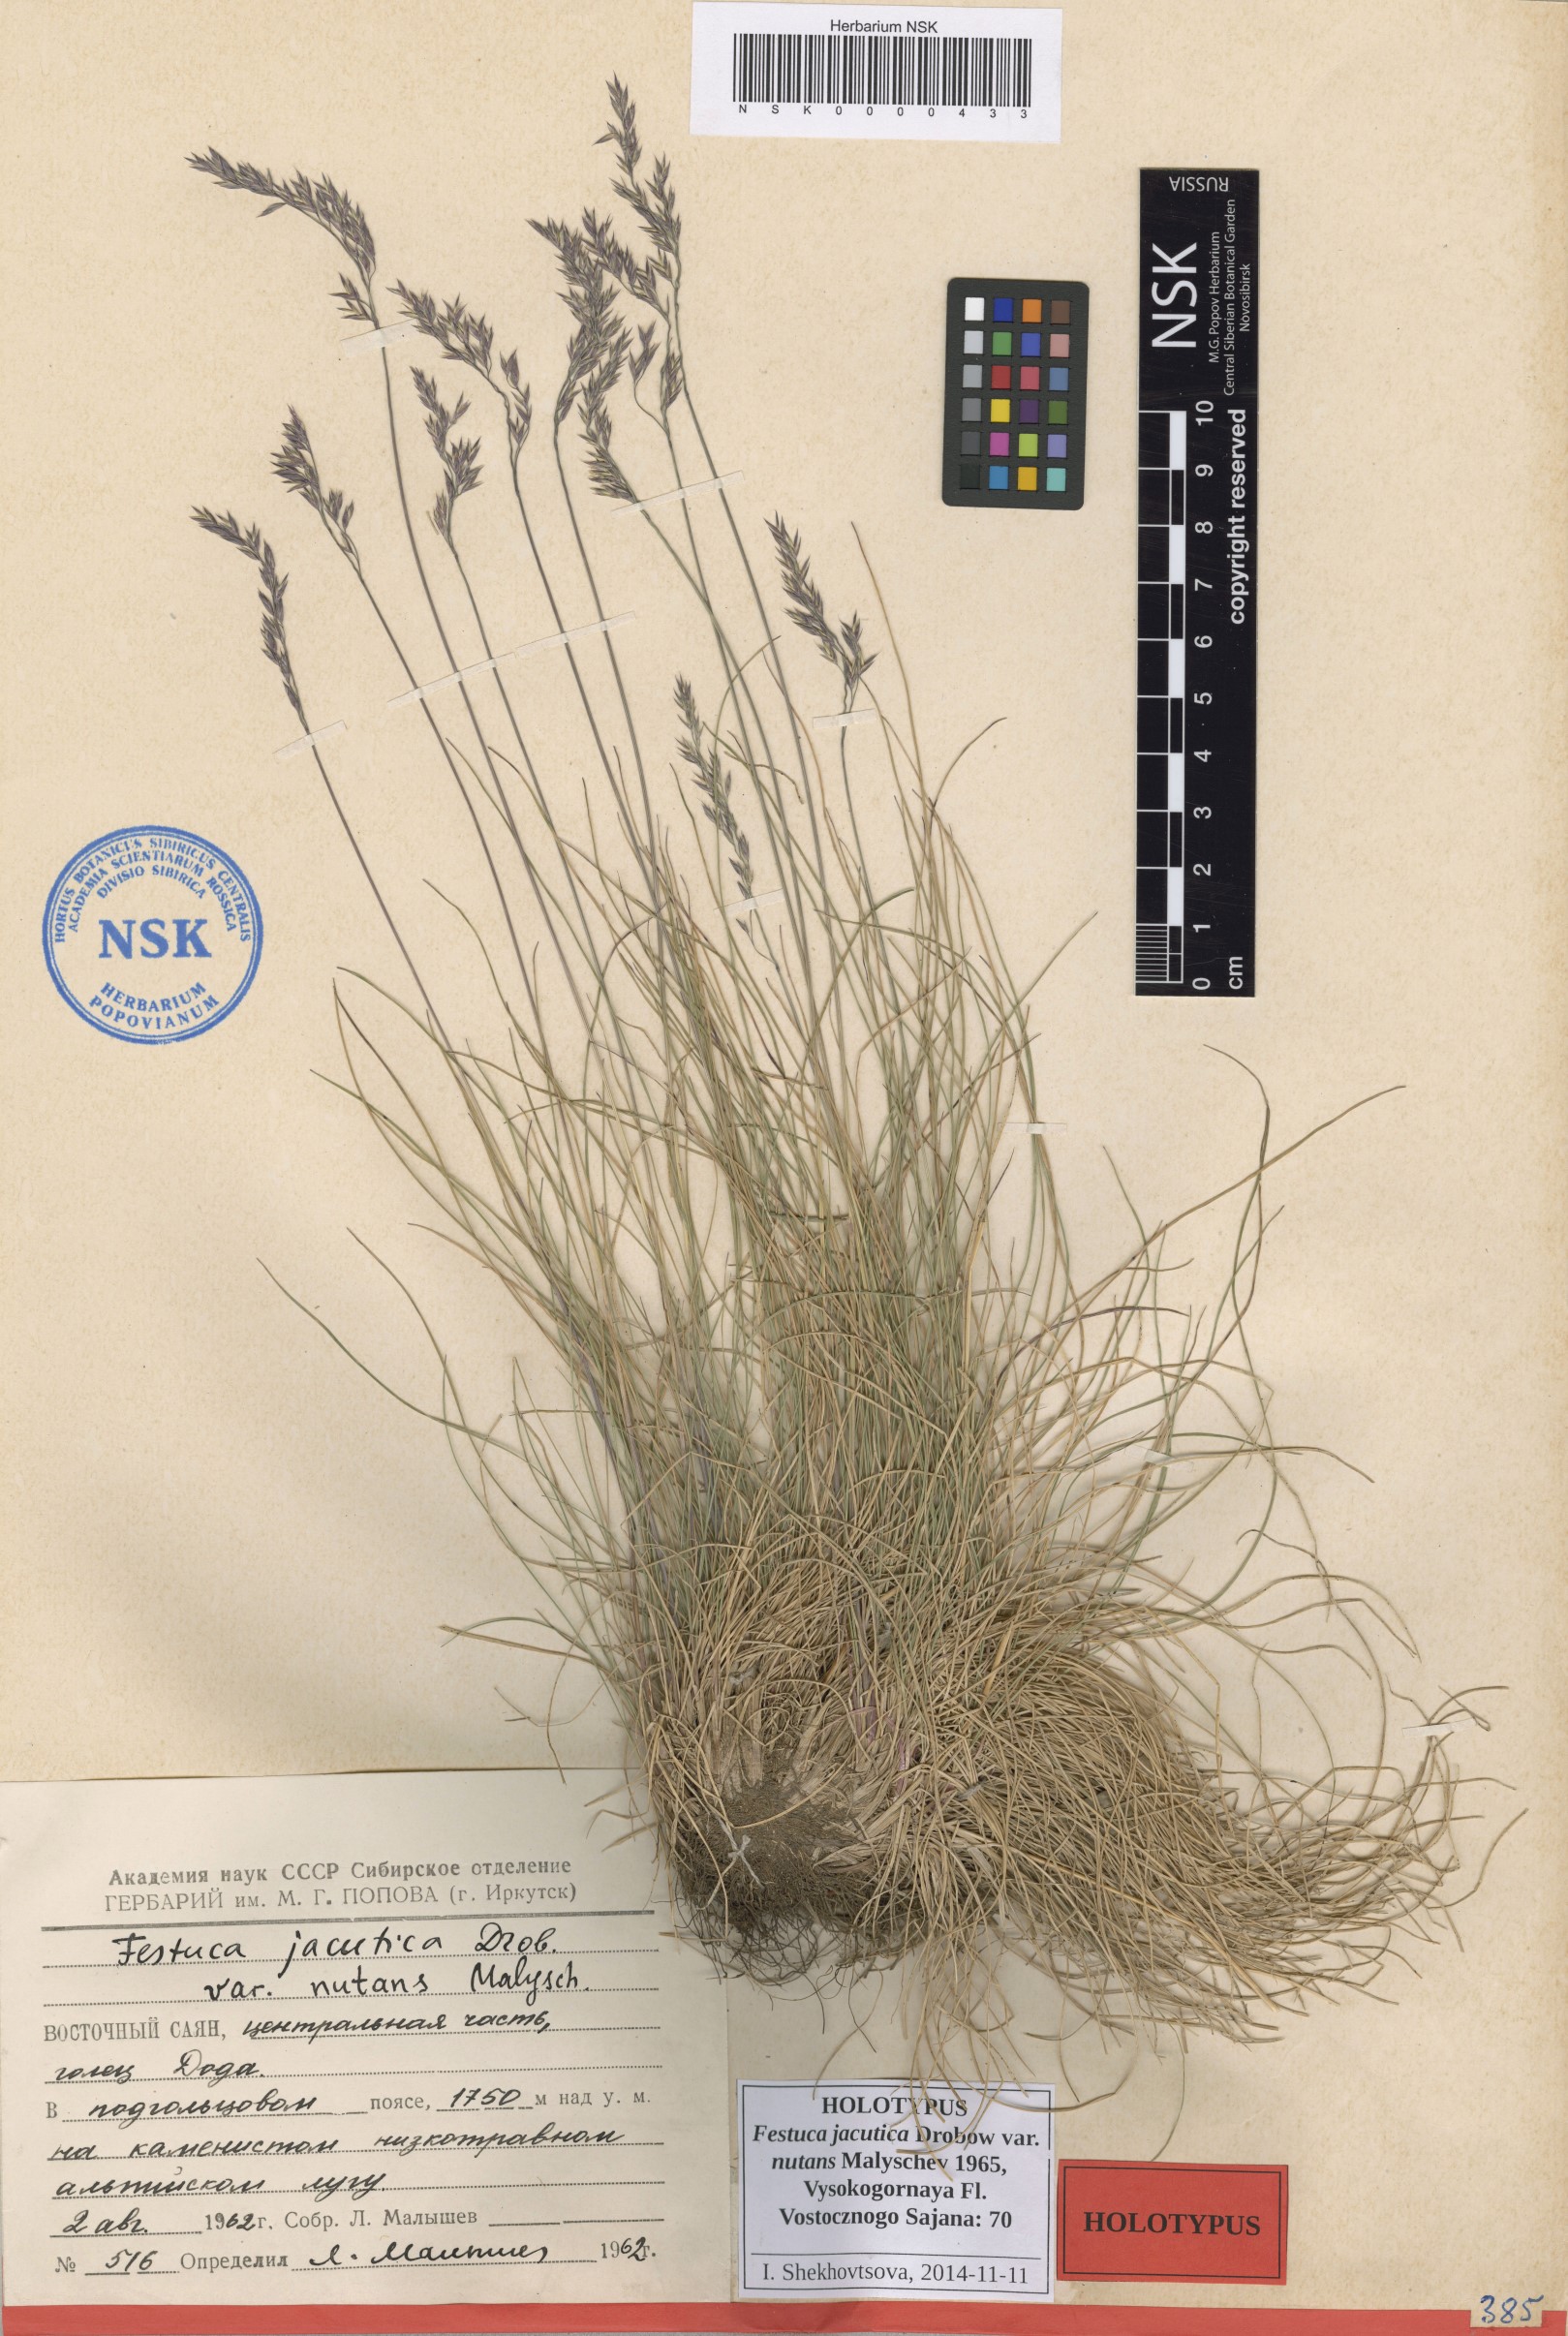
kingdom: Plantae
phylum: Tracheophyta
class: Liliopsida
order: Poales
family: Poaceae
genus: Festuca
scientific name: Festuca jacutica
